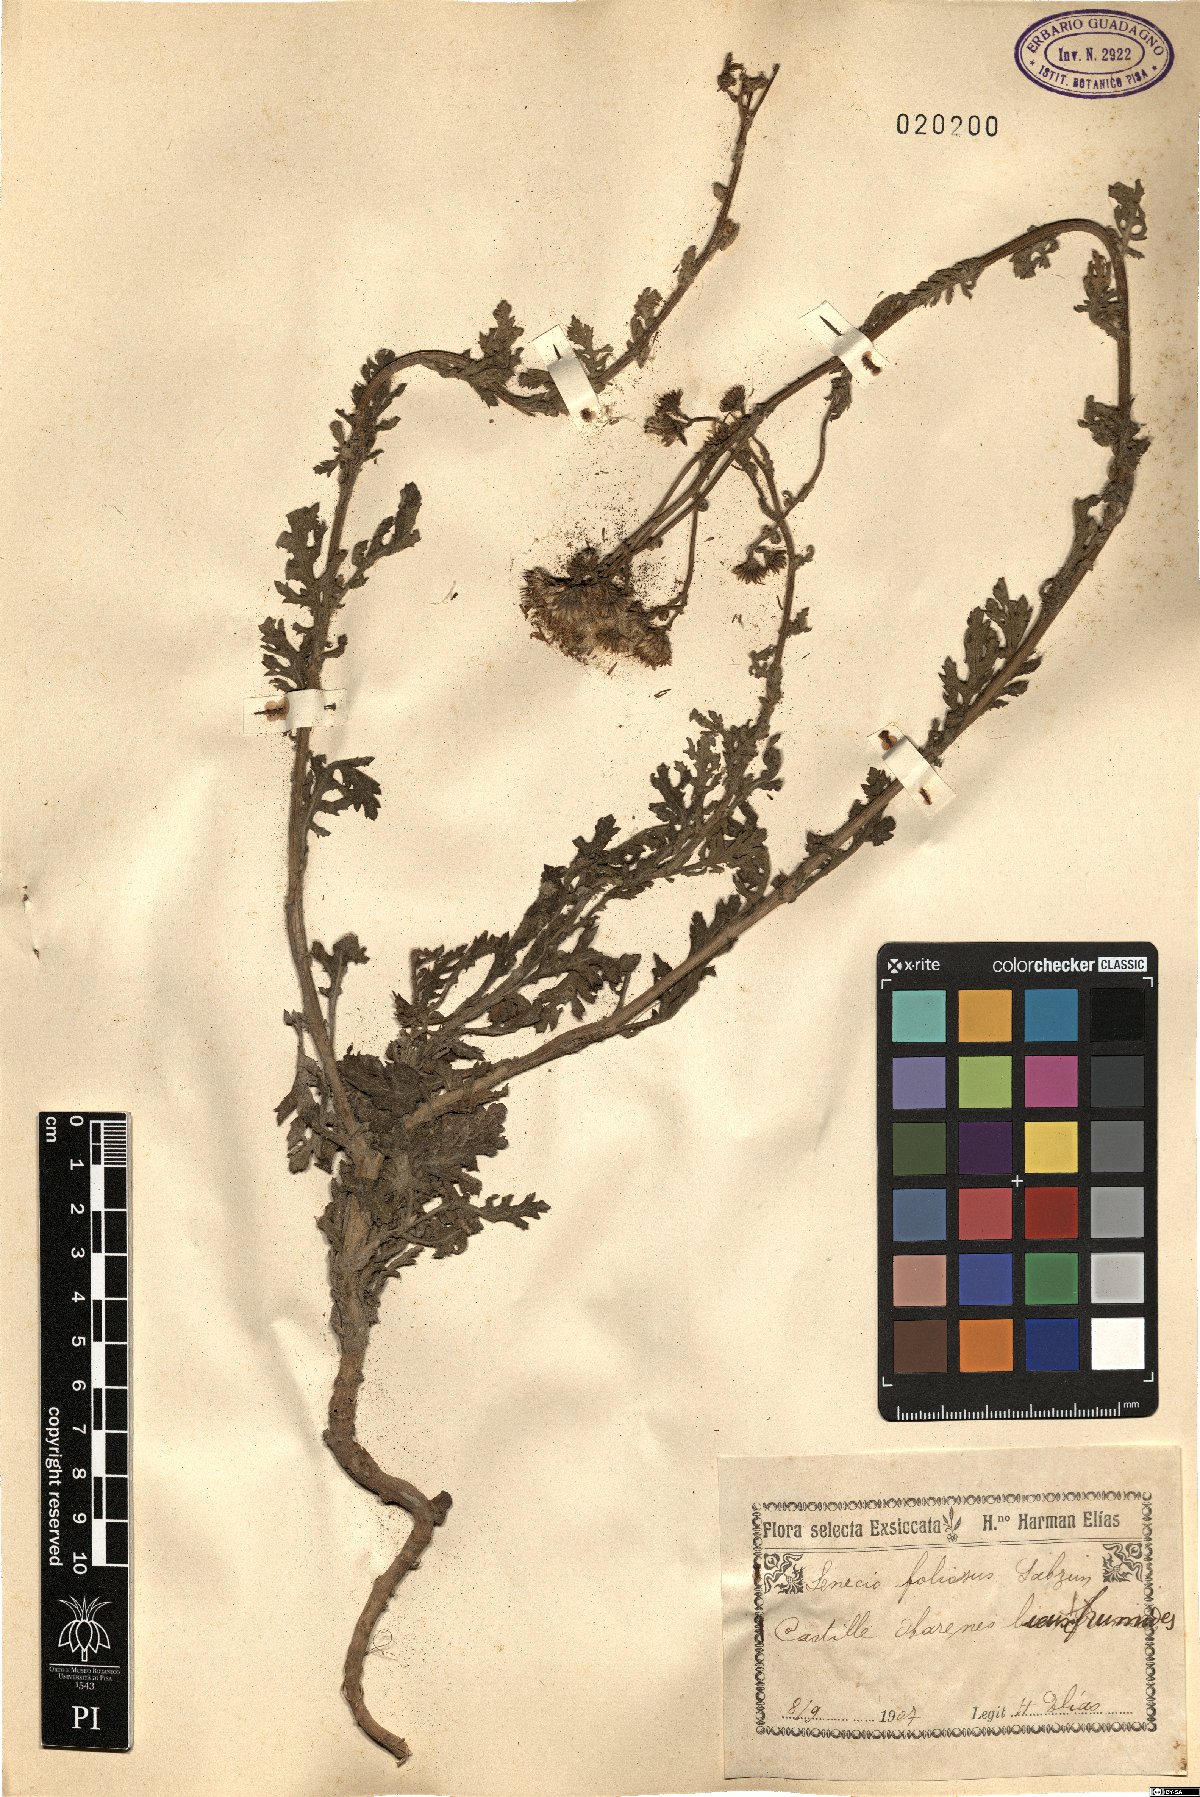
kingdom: Plantae
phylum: Tracheophyta
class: Magnoliopsida
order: Asterales
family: Asteraceae
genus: Jacobaea
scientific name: Jacobaea vulgaris
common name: Stinking willie
